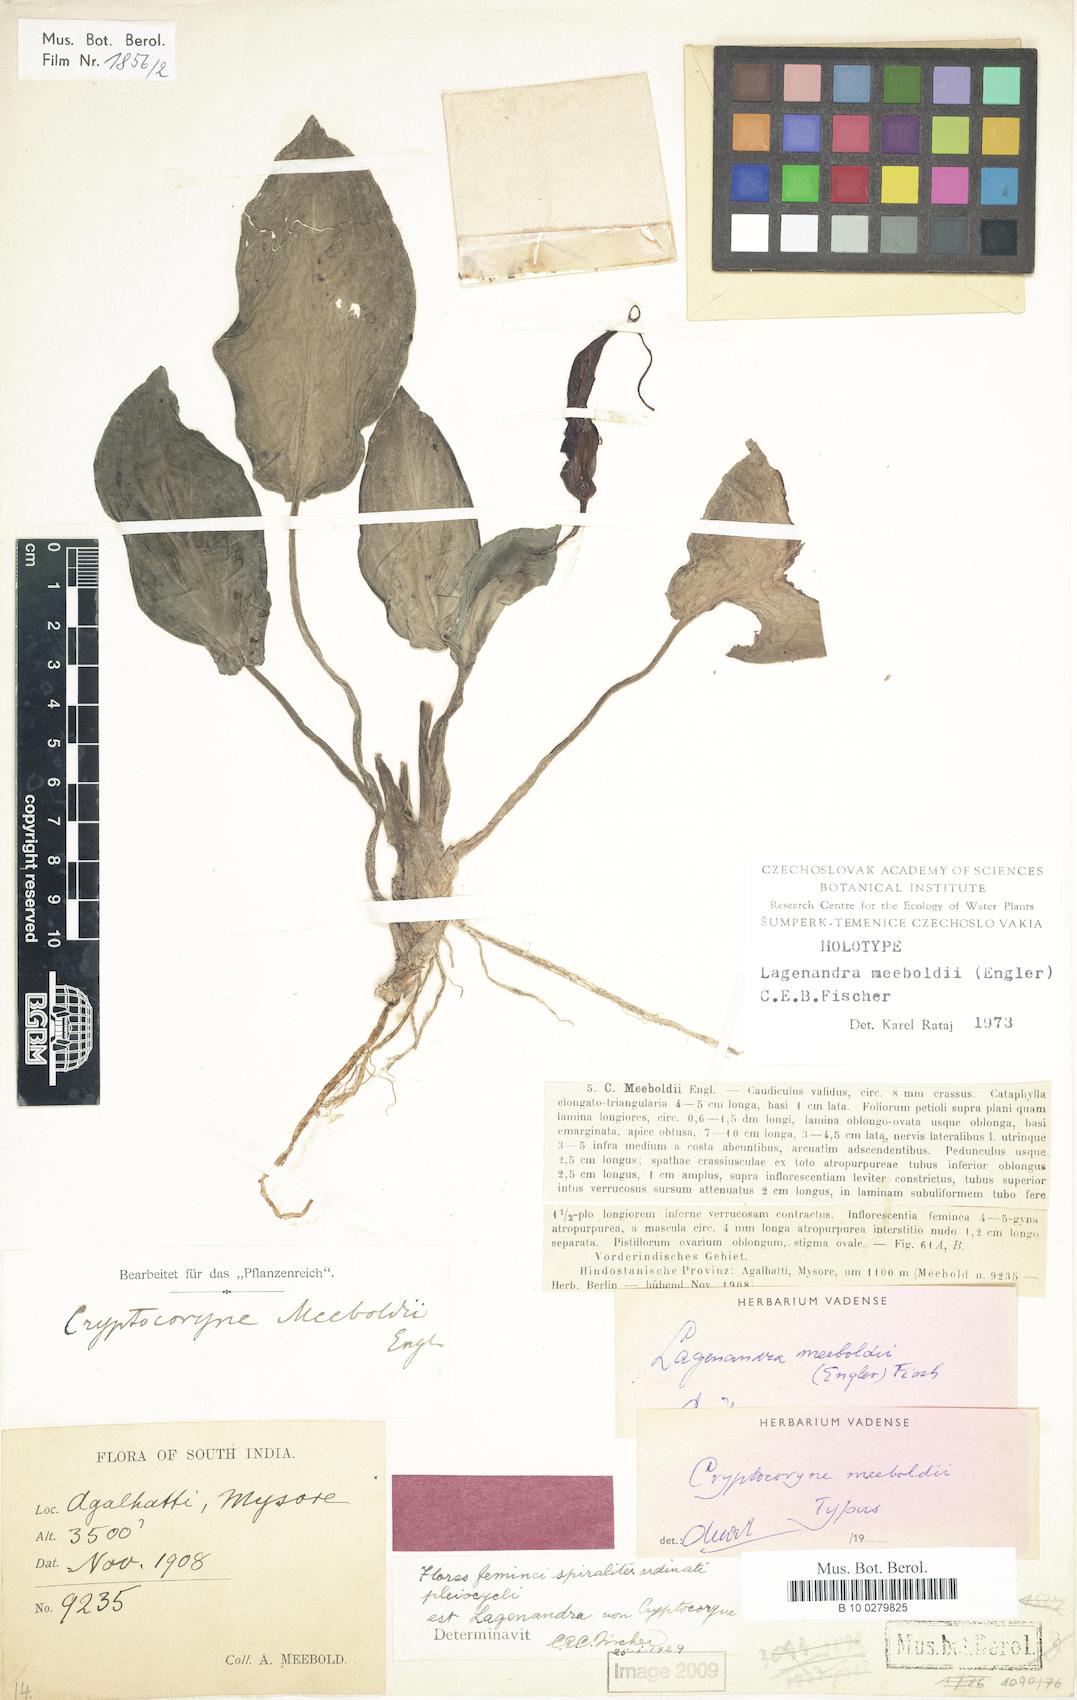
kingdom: Plantae
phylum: Tracheophyta
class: Liliopsida
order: Alismatales
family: Araceae
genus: Lagenandra
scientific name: Lagenandra meeboldii
